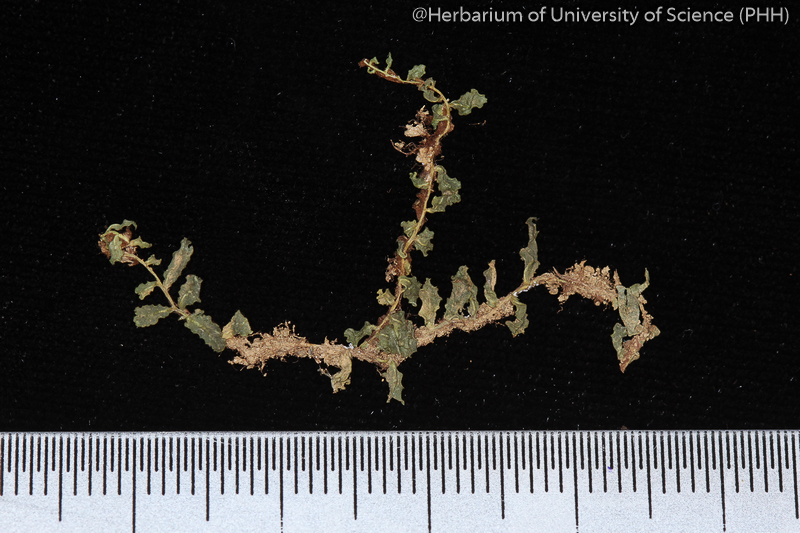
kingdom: Plantae
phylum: Bryophyta
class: Bryopsida
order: Bryales
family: Mniaceae
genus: Plagiomnium
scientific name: Plagiomnium succulentum
